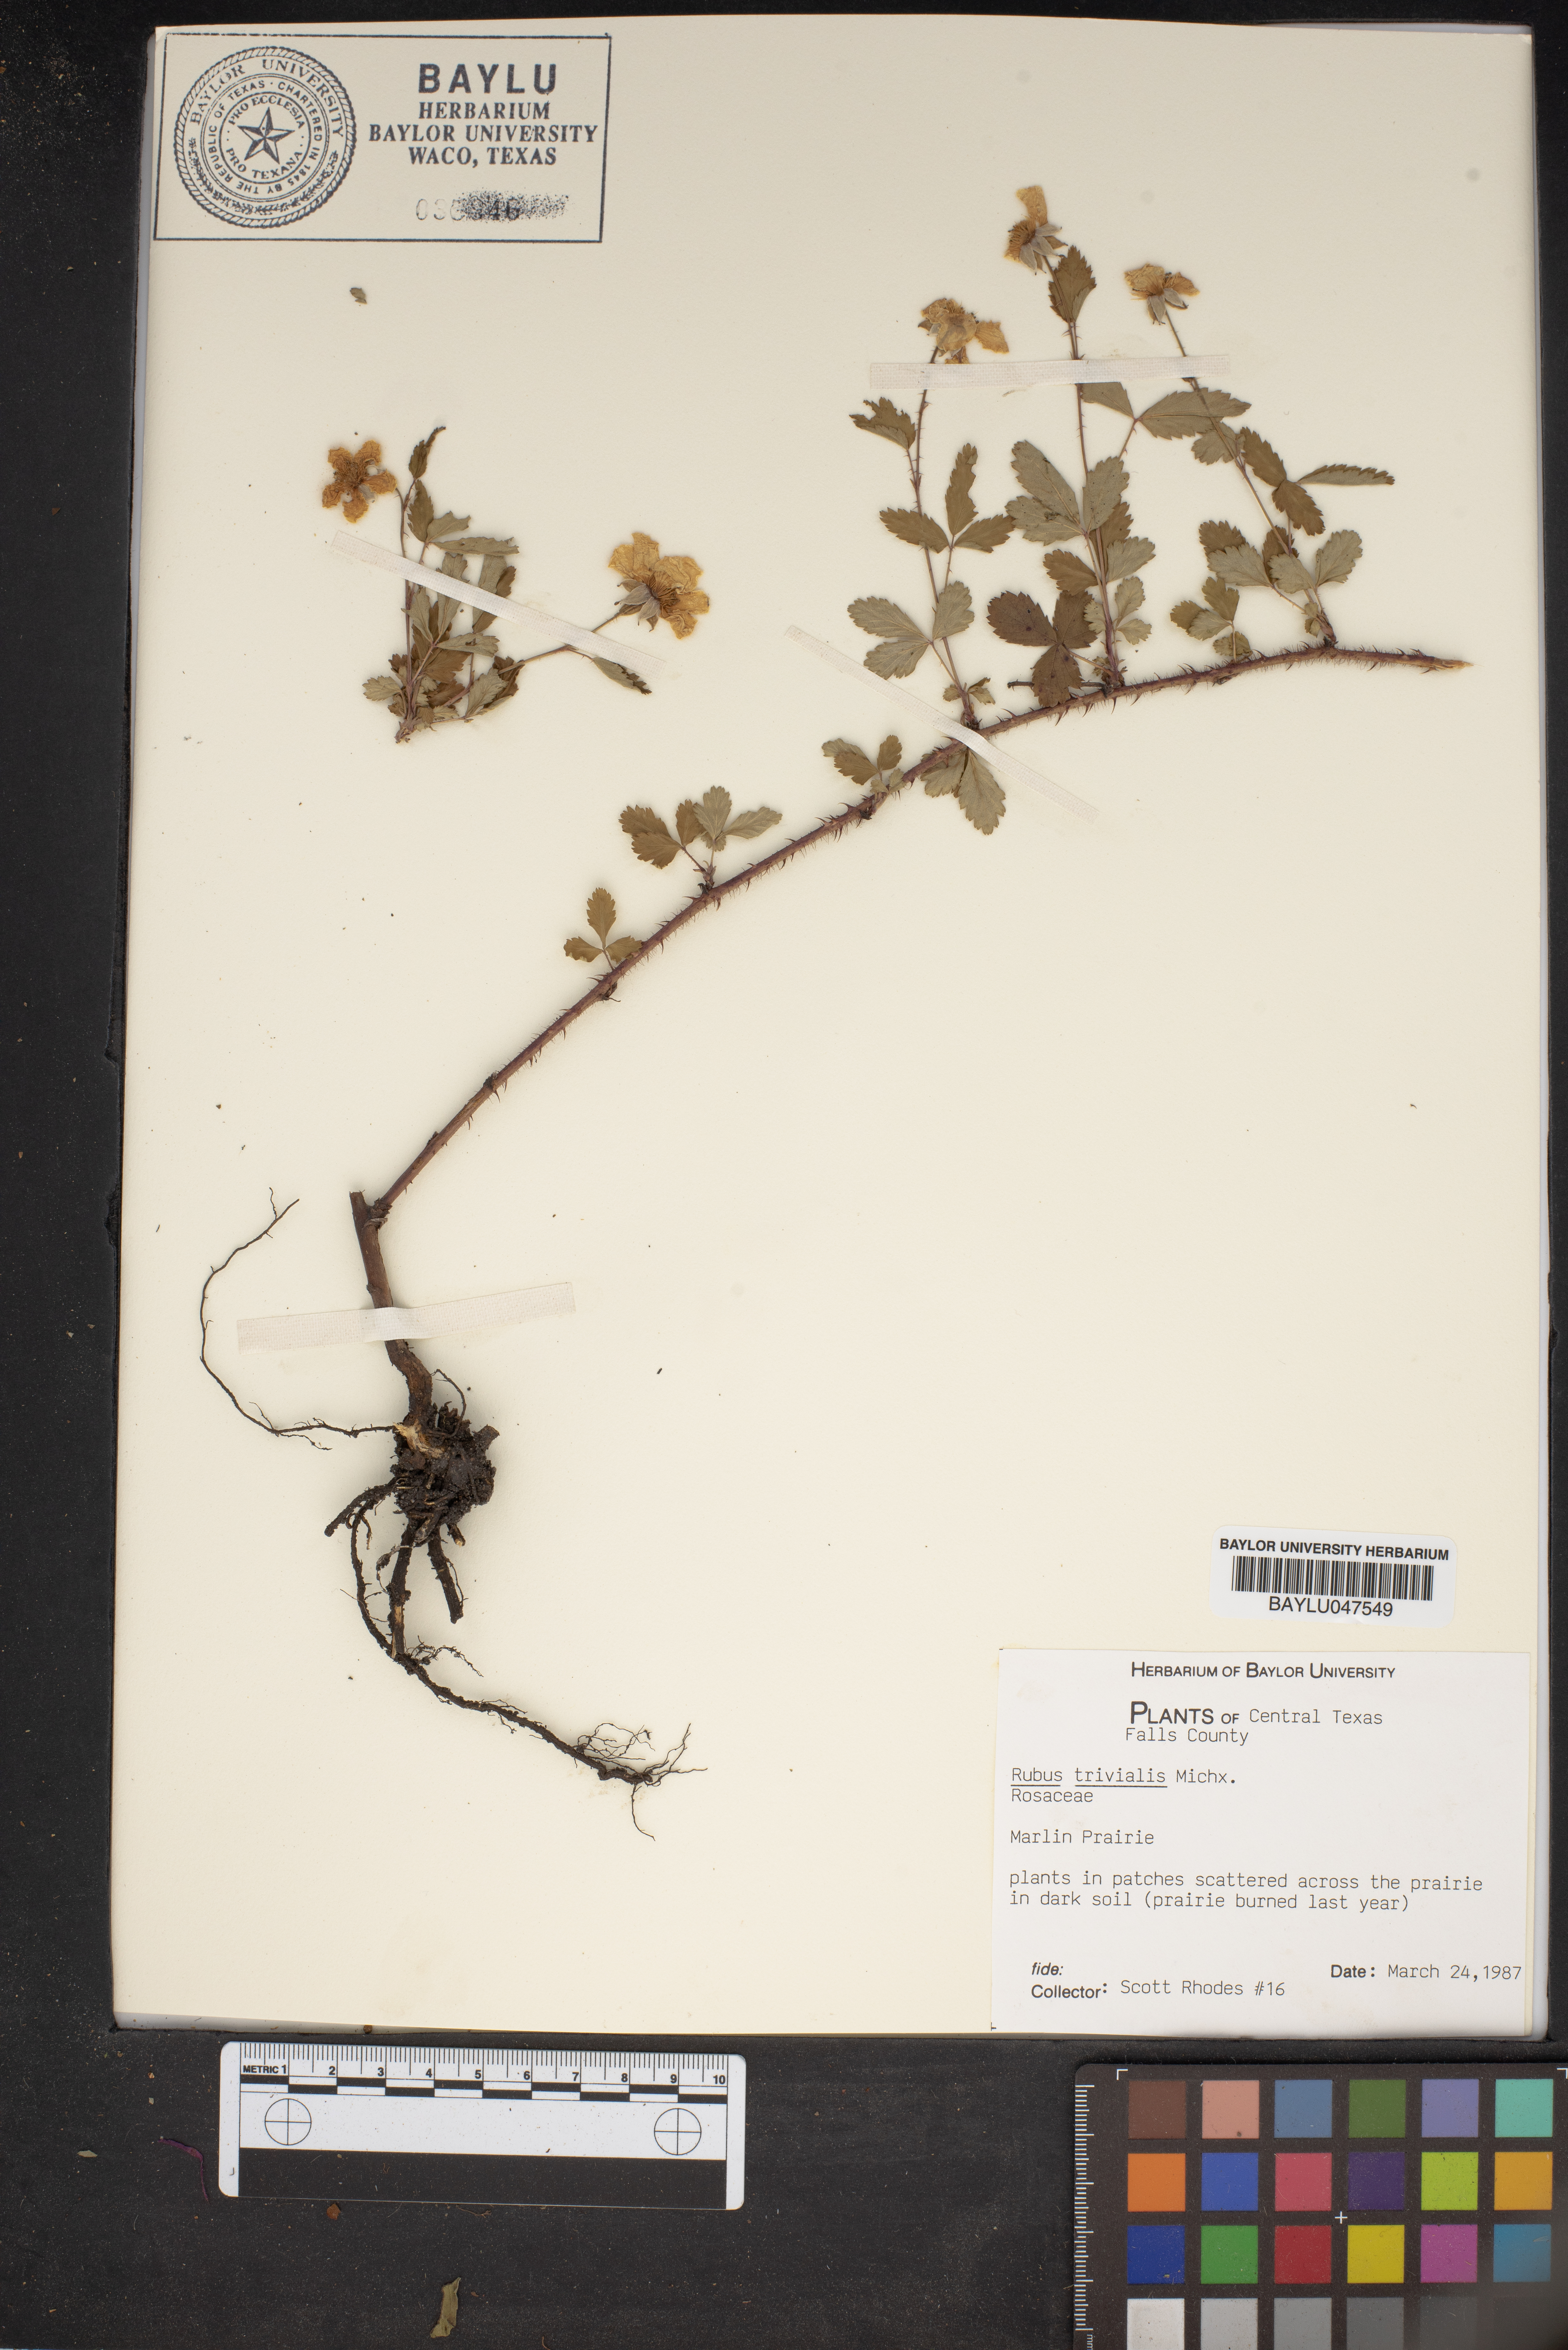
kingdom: Plantae
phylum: Tracheophyta
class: Magnoliopsida
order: Rosales
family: Rosaceae
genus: Rubus
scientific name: Rubus trivialis
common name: Southern dewberry
